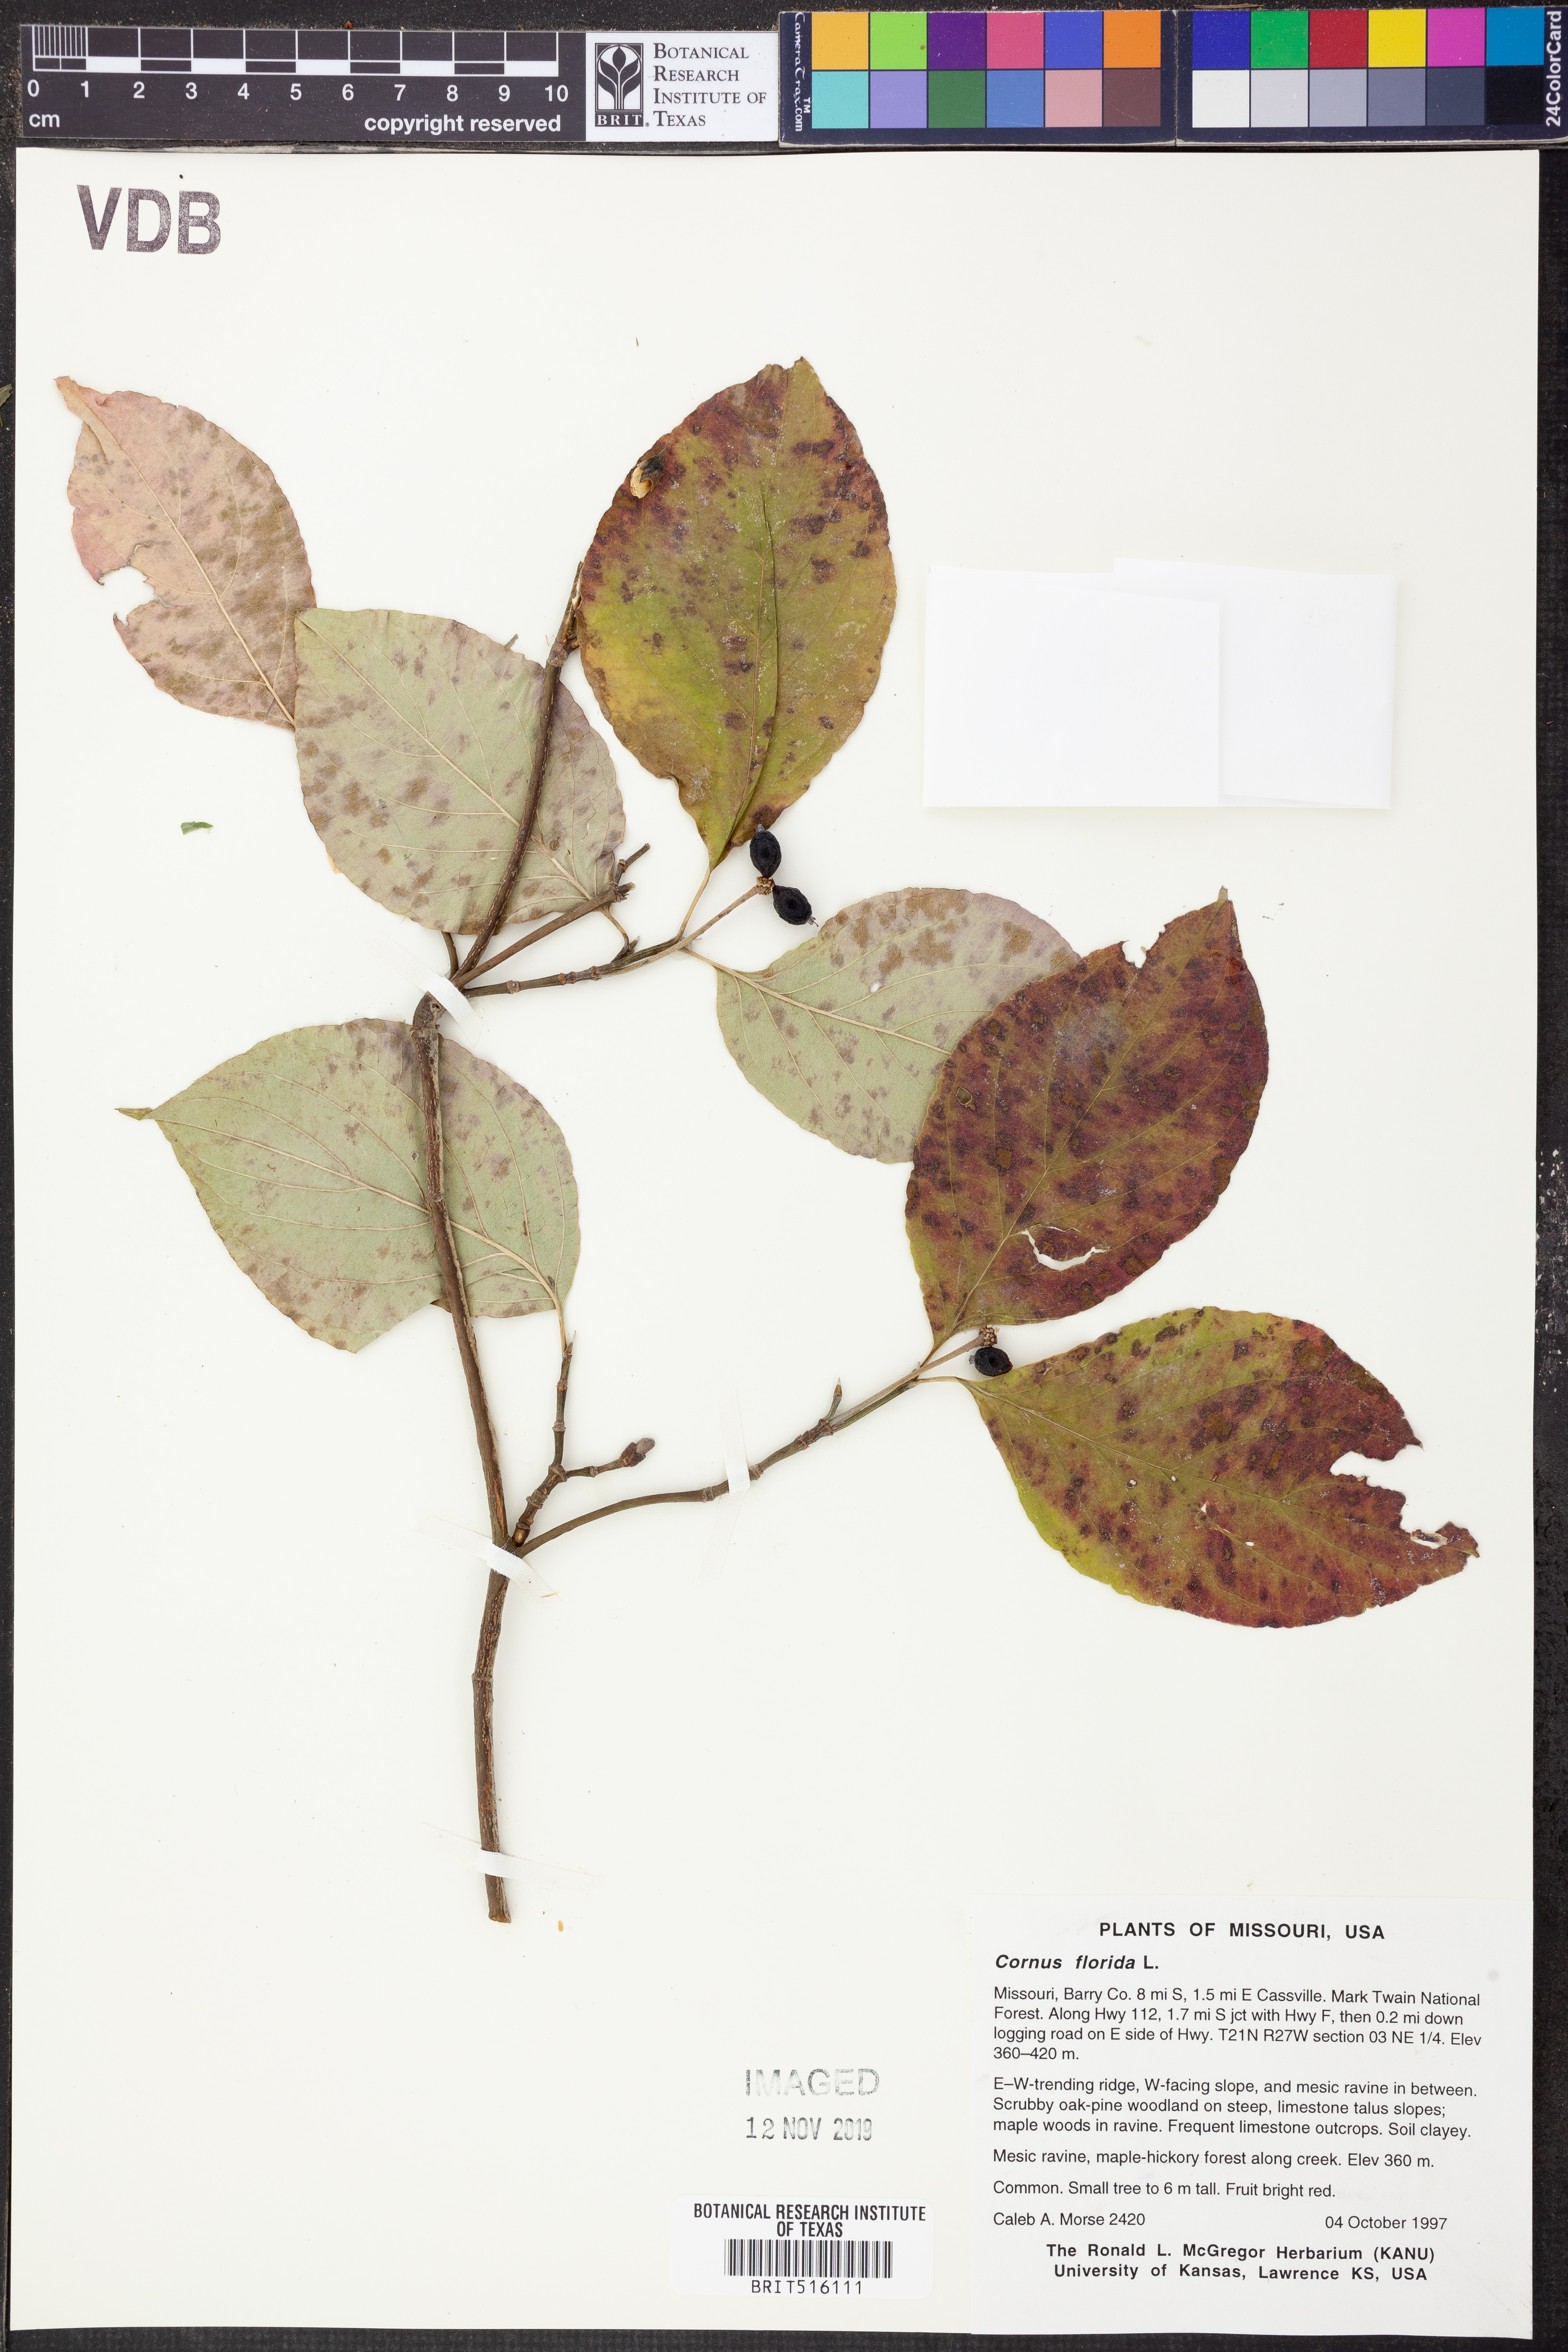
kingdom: Plantae
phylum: Tracheophyta
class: Magnoliopsida
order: Cornales
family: Cornaceae
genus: Cornus
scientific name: Cornus florida
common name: Flowering dogwood
